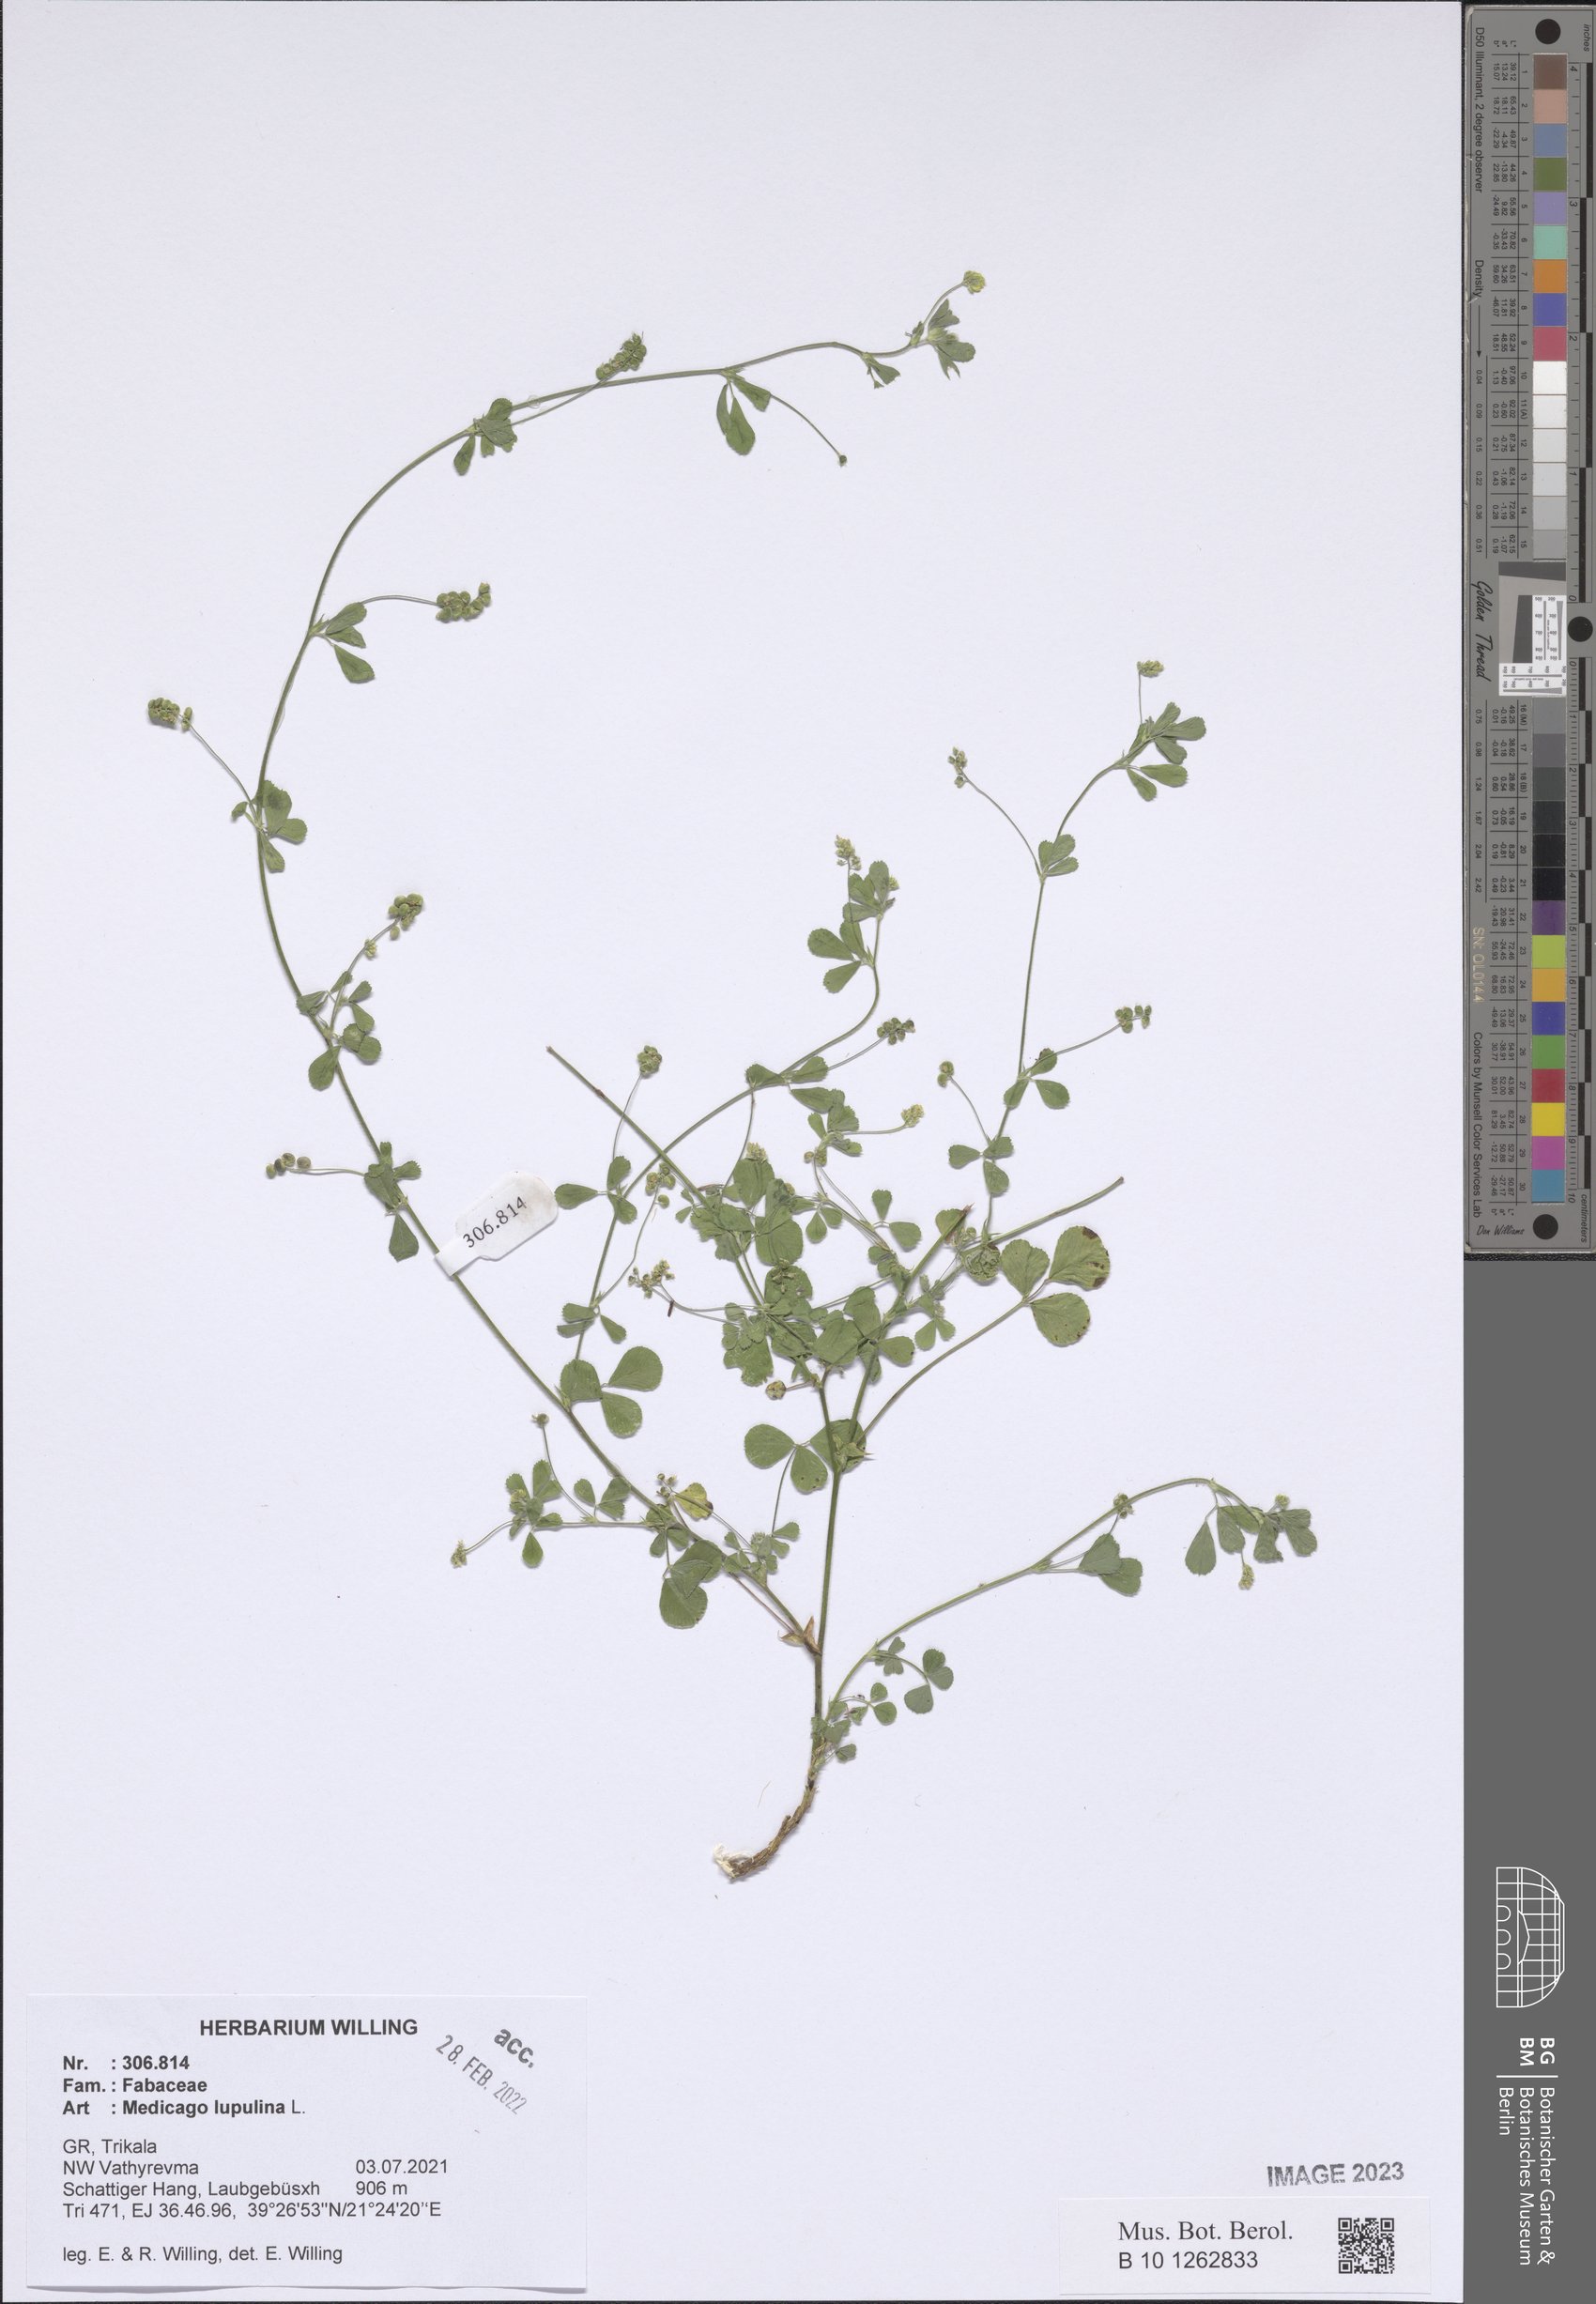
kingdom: Plantae
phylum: Tracheophyta
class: Magnoliopsida
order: Fabales
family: Fabaceae
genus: Medicago
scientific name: Medicago lupulina
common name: Black medick
